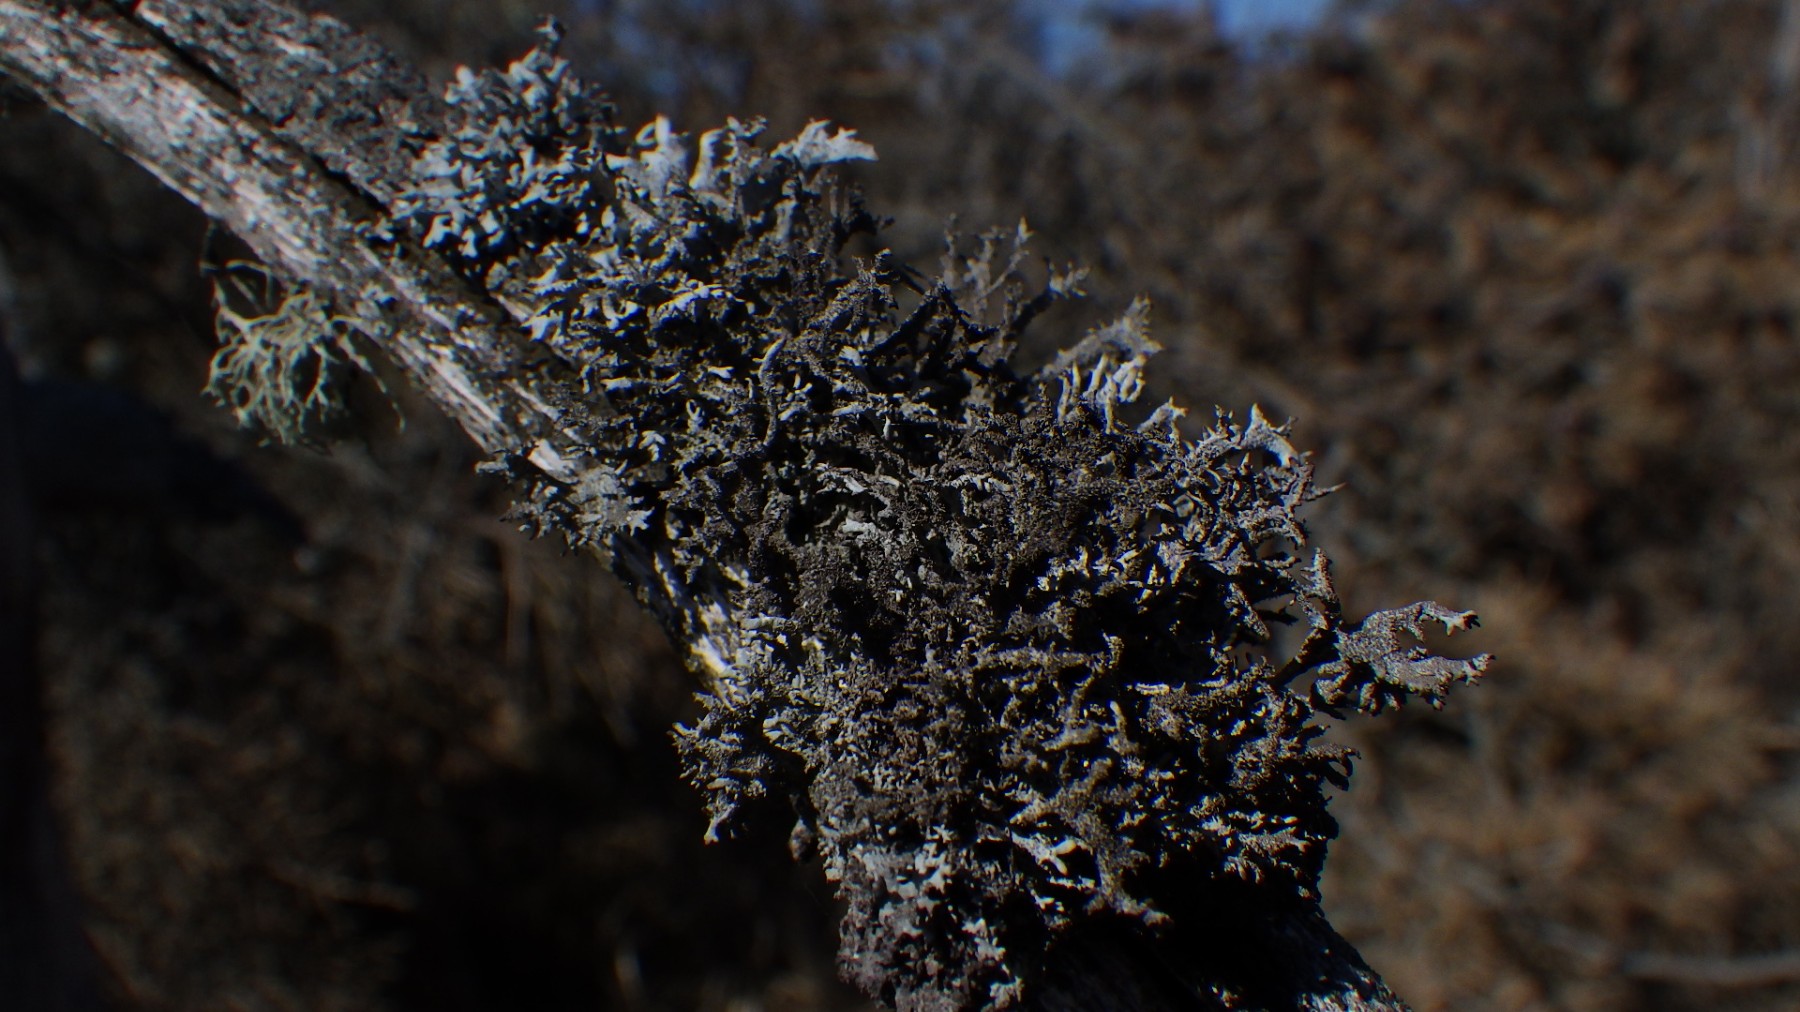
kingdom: Fungi
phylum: Ascomycota
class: Lecanoromycetes
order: Lecanorales
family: Parmeliaceae
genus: Pseudevernia
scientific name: Pseudevernia furfuracea
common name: grå fyrrelav
